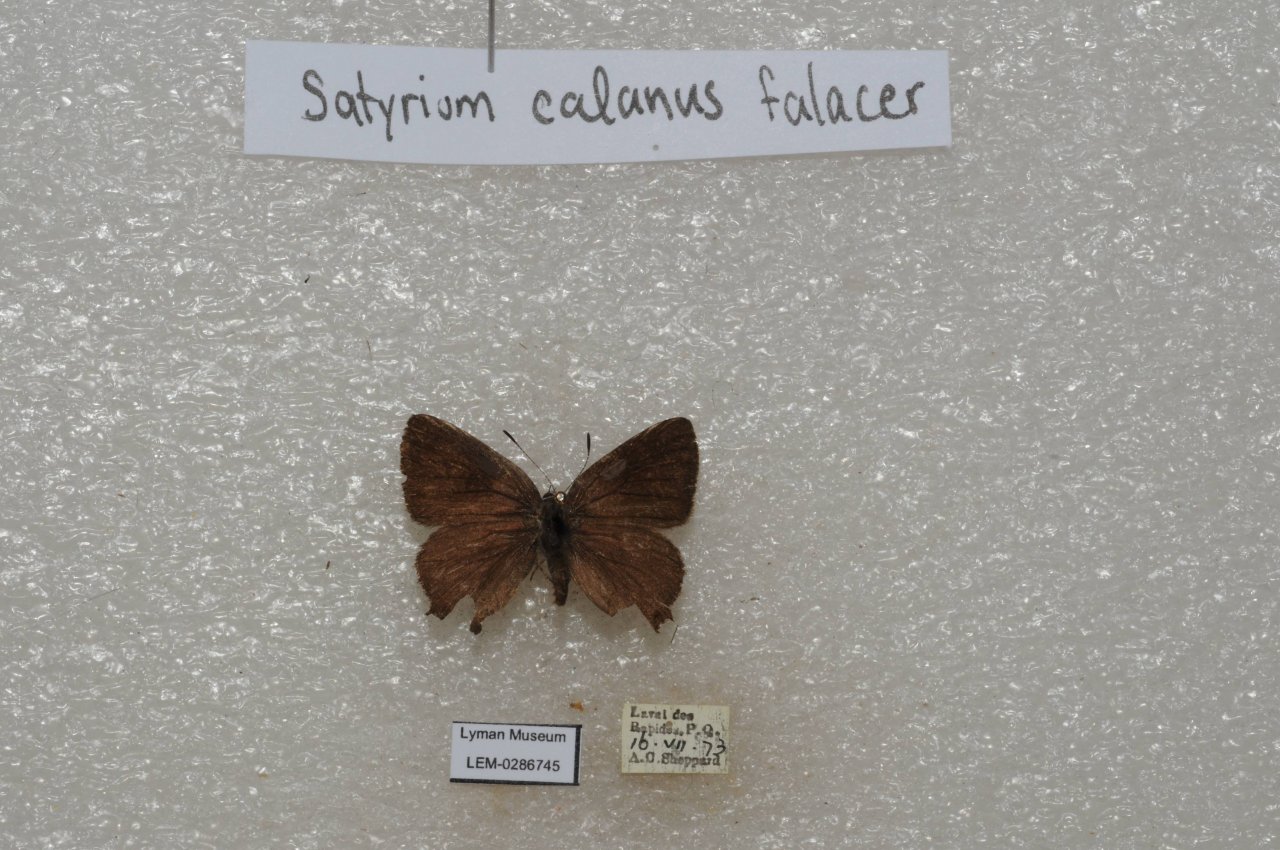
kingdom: Animalia
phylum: Arthropoda
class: Insecta
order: Lepidoptera
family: Lycaenidae
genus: Satyrium
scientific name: Satyrium calanus
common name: Banded Hairstreak
